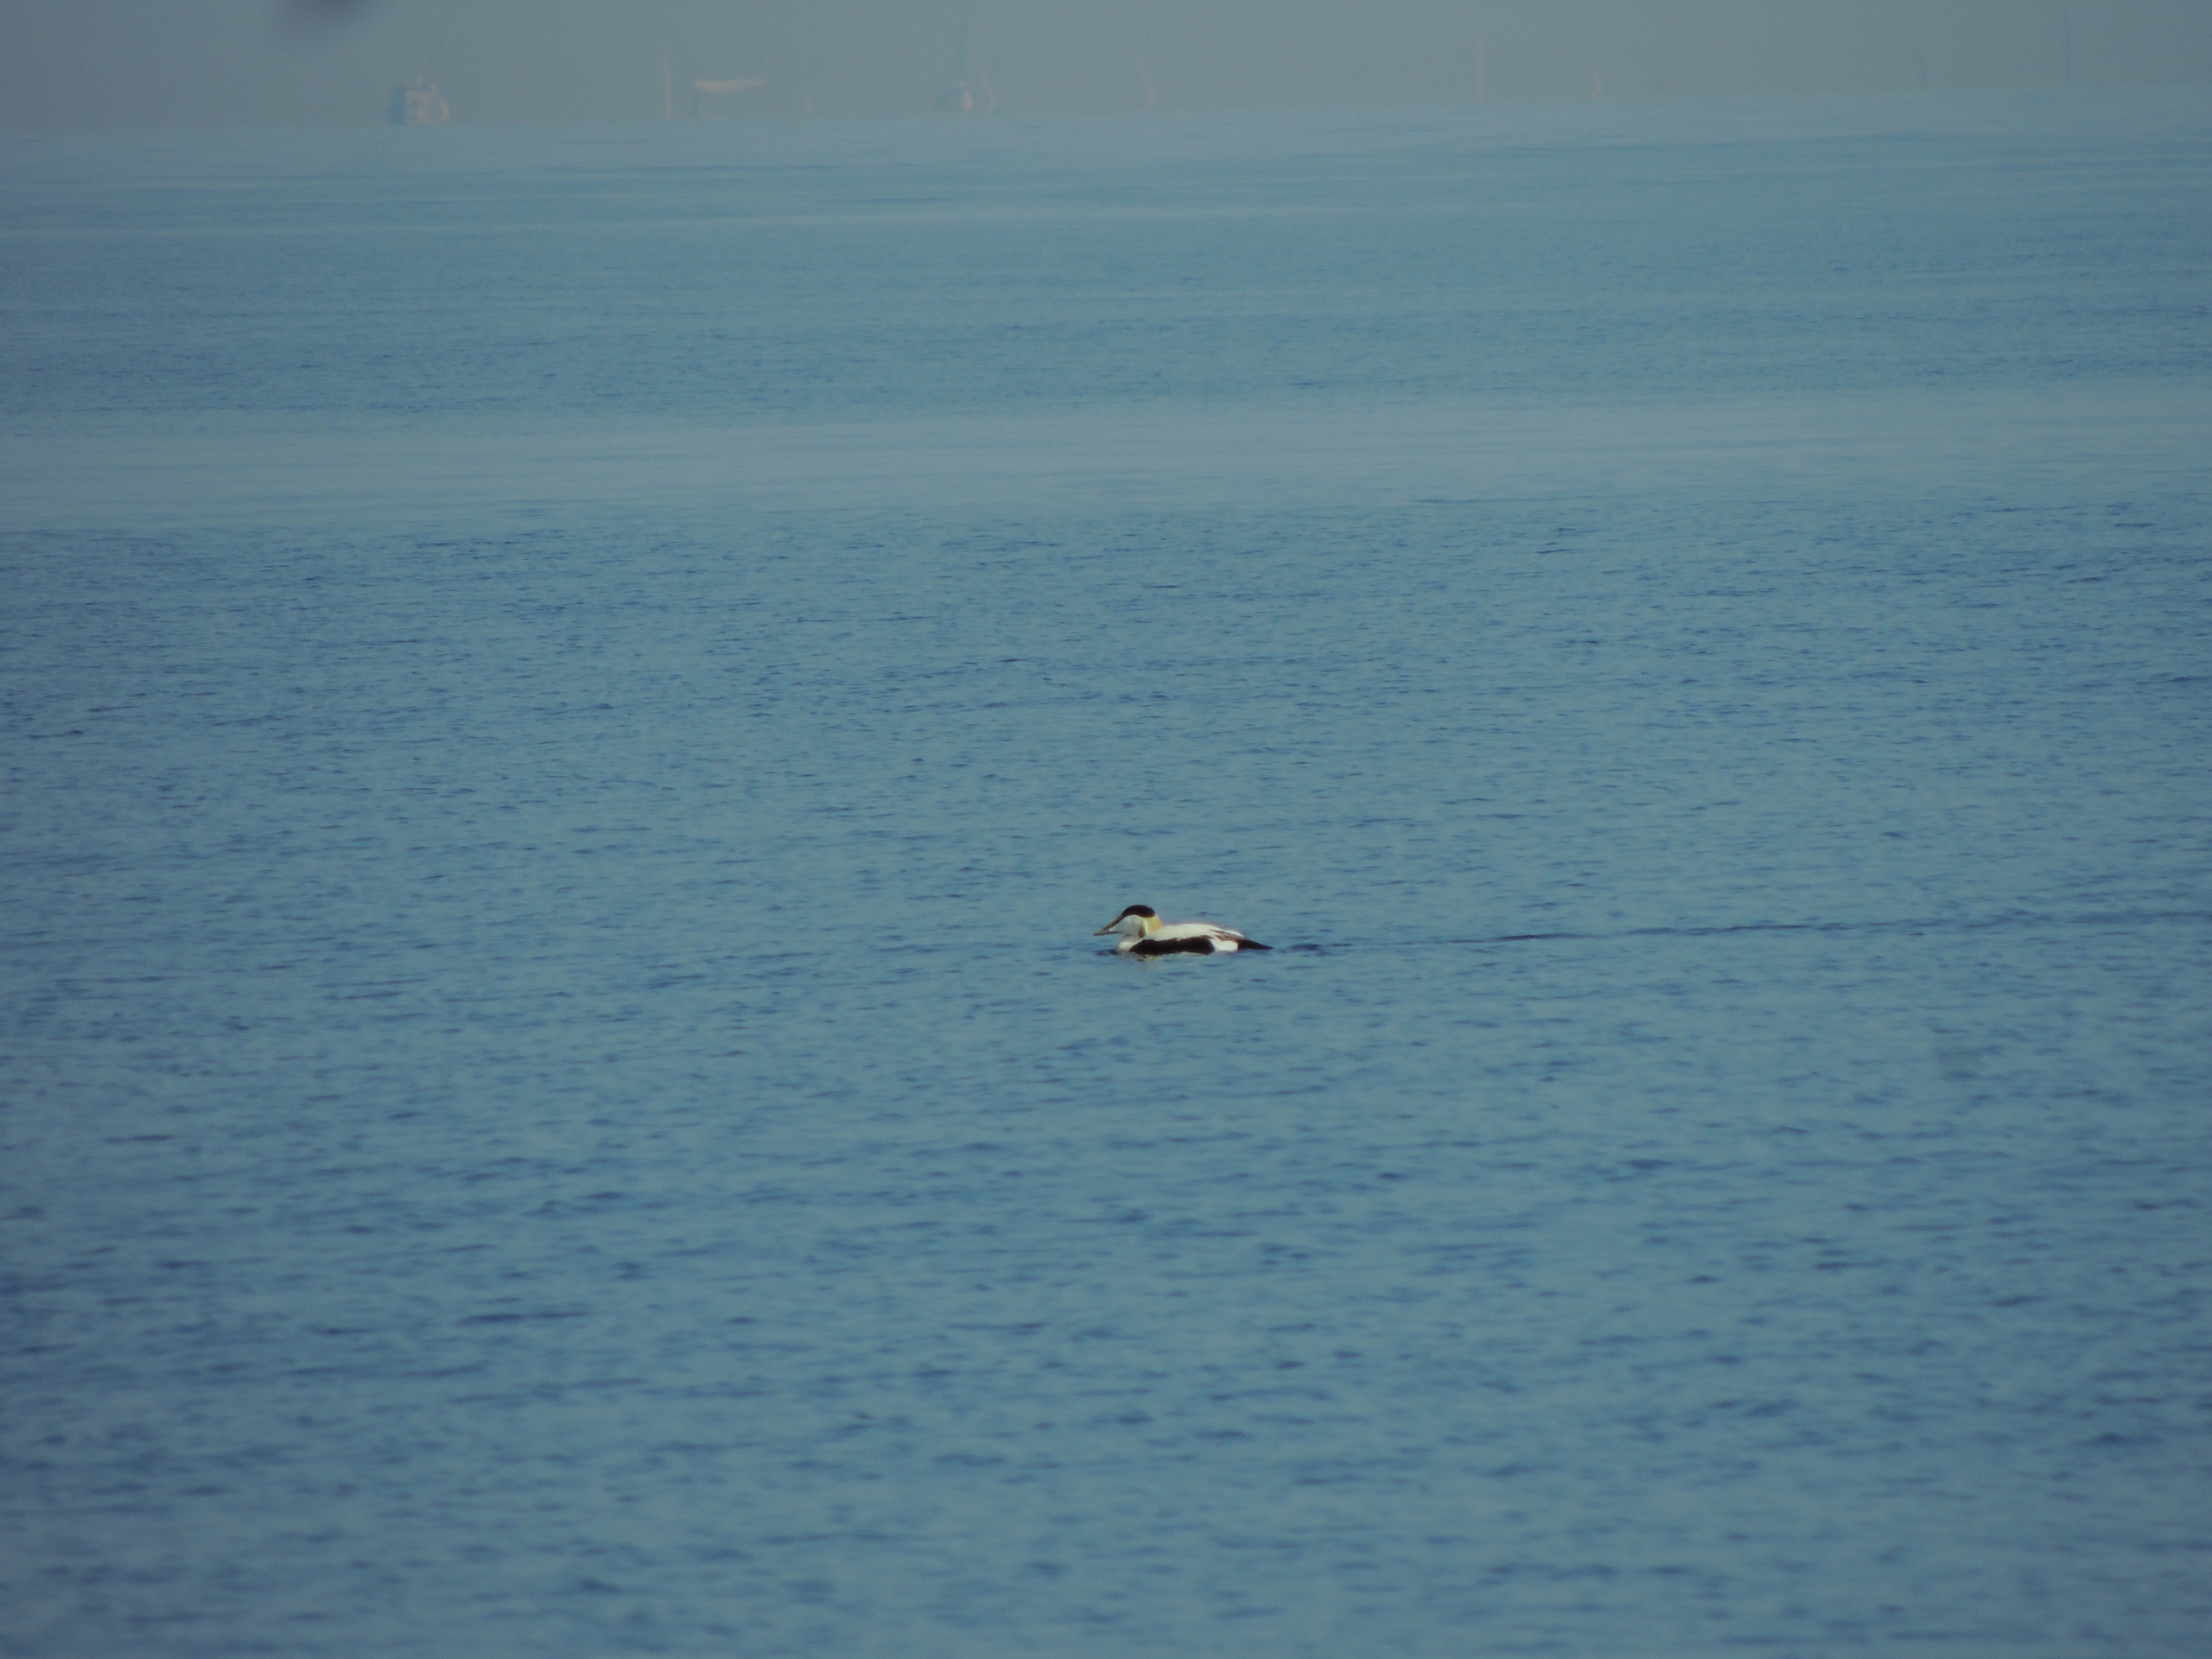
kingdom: Animalia
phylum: Chordata
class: Aves
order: Anseriformes
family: Anatidae
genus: Somateria
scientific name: Somateria mollissima
